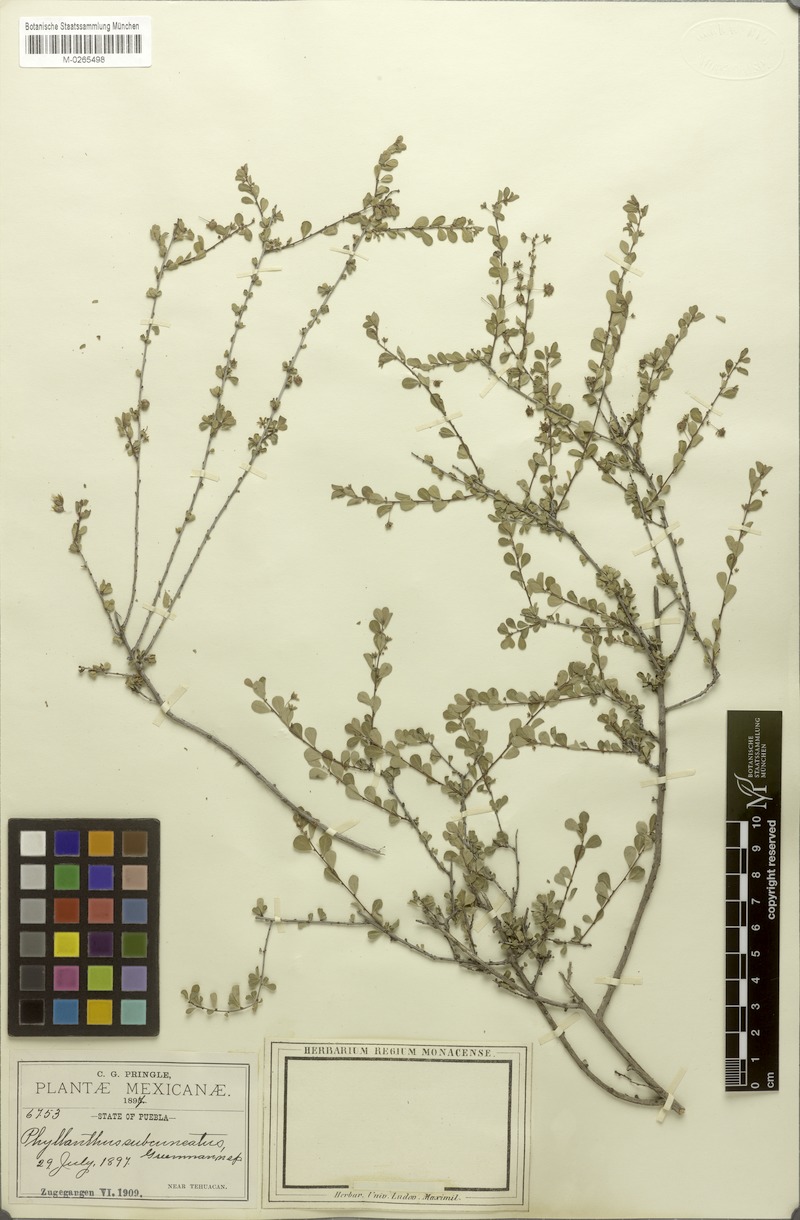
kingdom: Plantae
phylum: Tracheophyta
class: Magnoliopsida
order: Malpighiales
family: Phyllanthaceae
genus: Phyllanthus
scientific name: Phyllanthus subcuneatus
